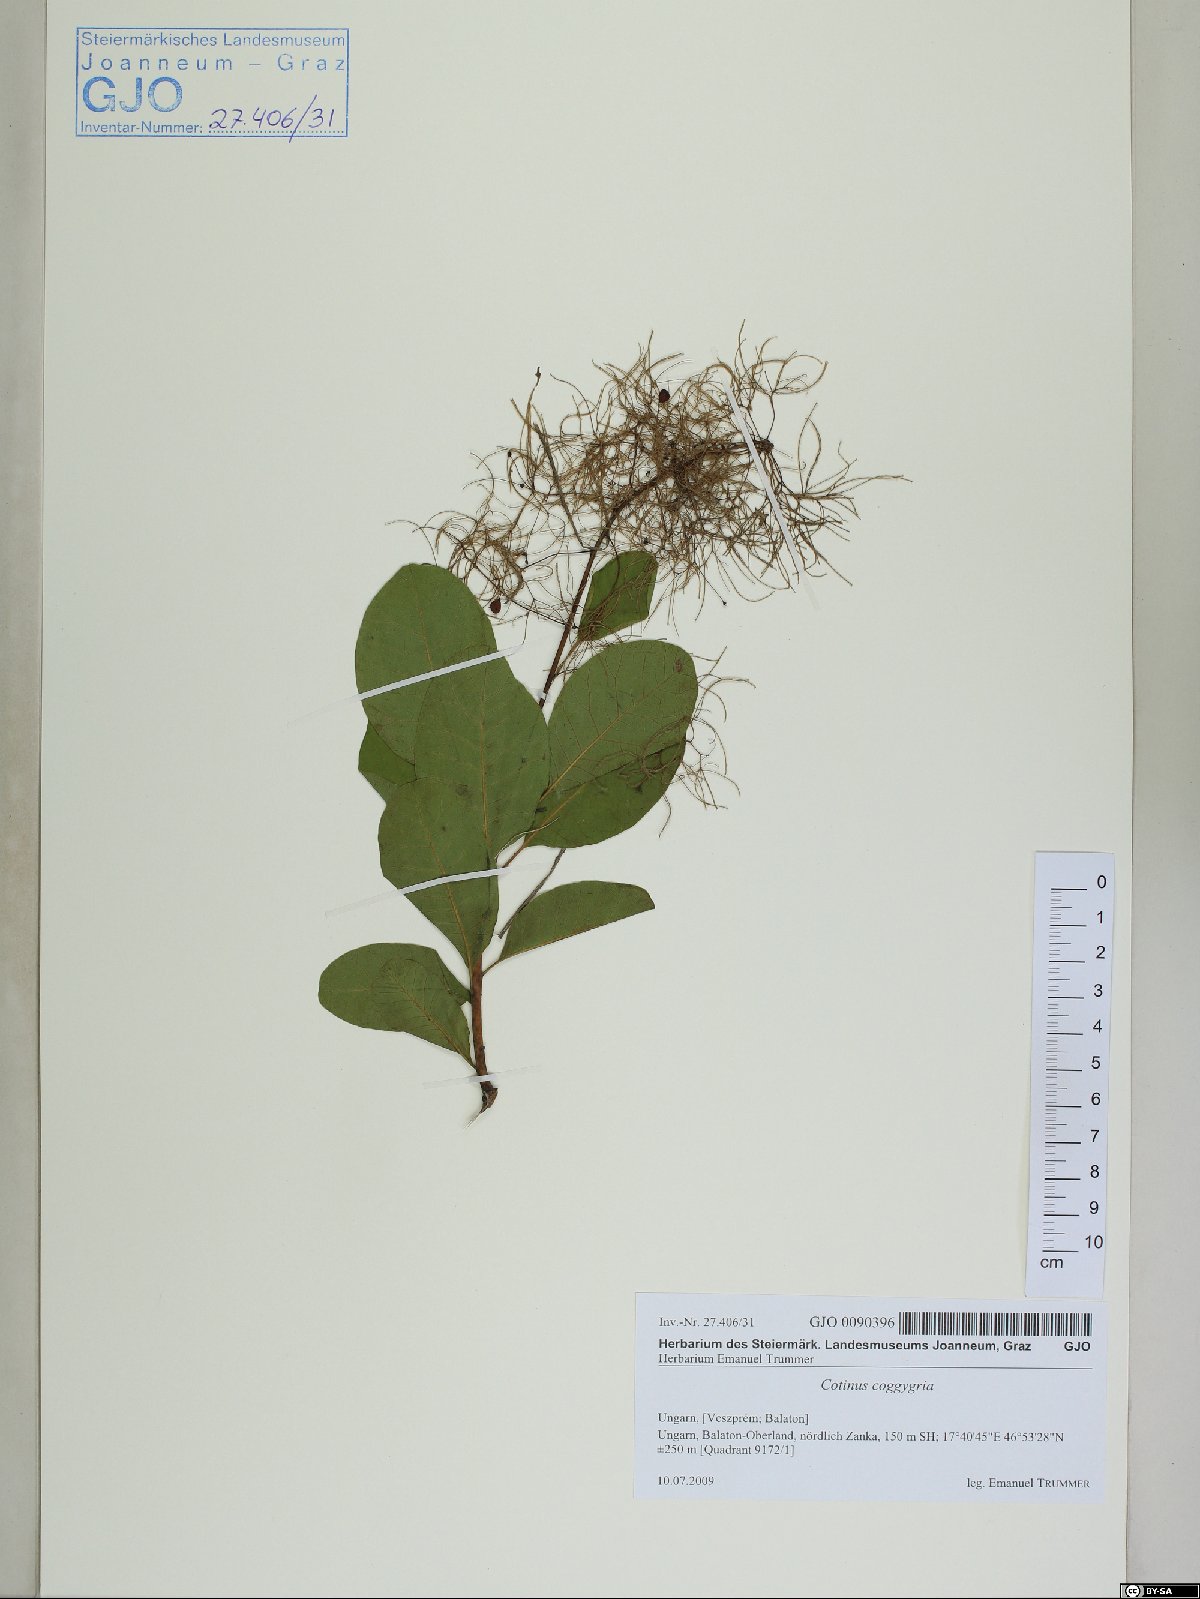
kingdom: Plantae
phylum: Tracheophyta
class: Magnoliopsida
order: Sapindales
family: Anacardiaceae
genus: Cotinus
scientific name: Cotinus coggygria
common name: Smoke-tree
